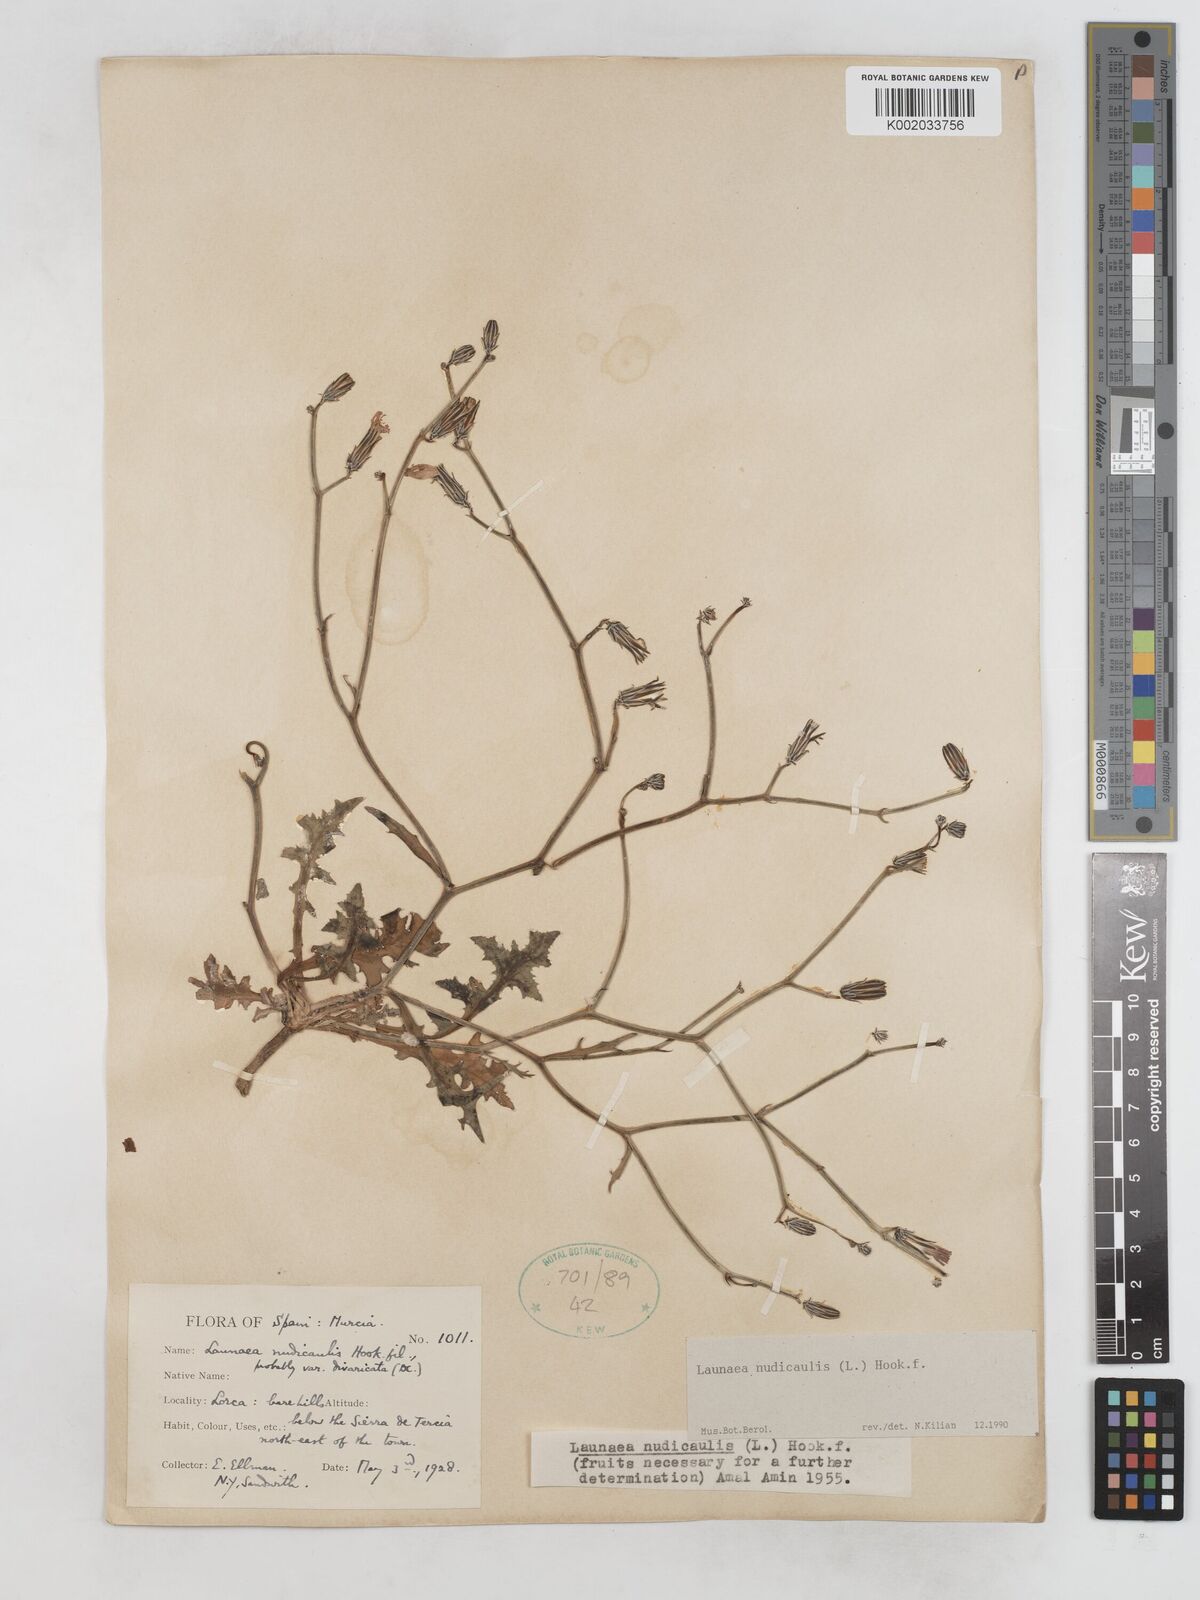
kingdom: Plantae
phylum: Tracheophyta
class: Magnoliopsida
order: Asterales
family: Asteraceae
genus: Launaea
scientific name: Launaea nudicaulis
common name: Naked launaea
